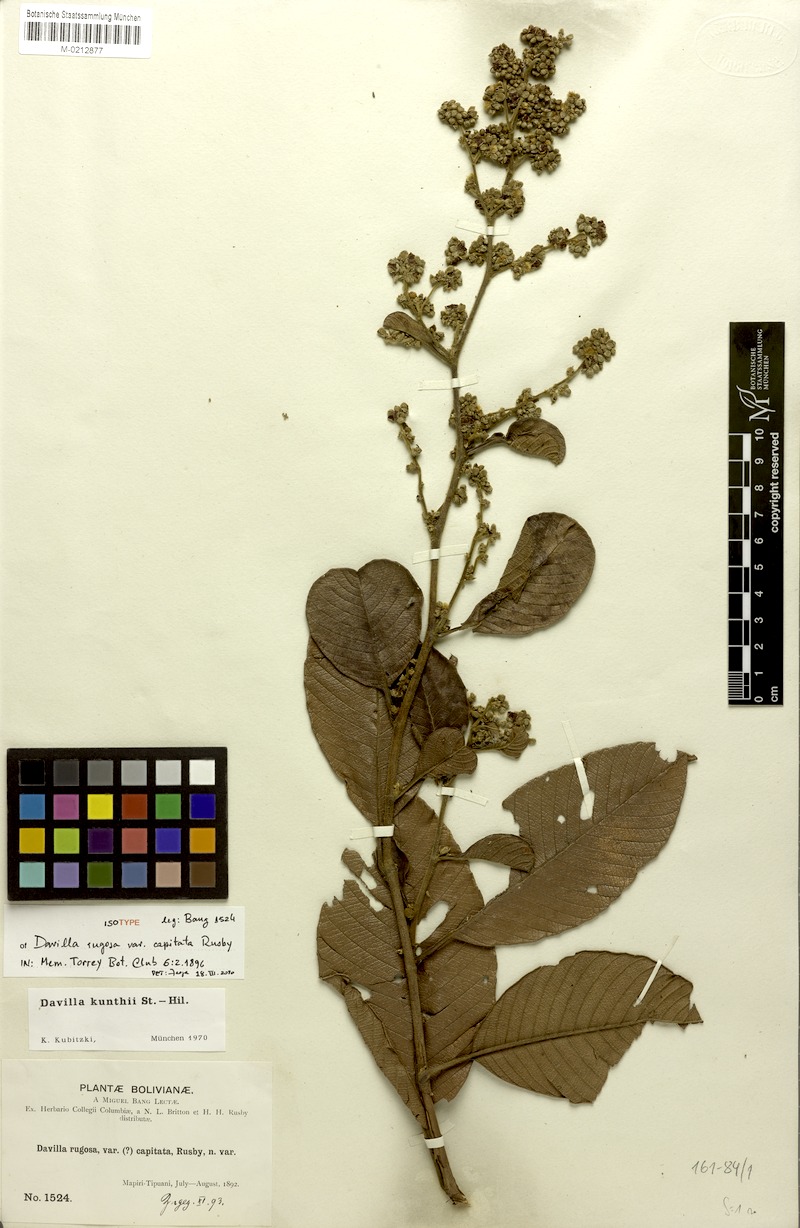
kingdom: Plantae
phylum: Tracheophyta
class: Magnoliopsida
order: Dilleniales
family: Dilleniaceae
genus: Davilla
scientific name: Davilla kunthii
